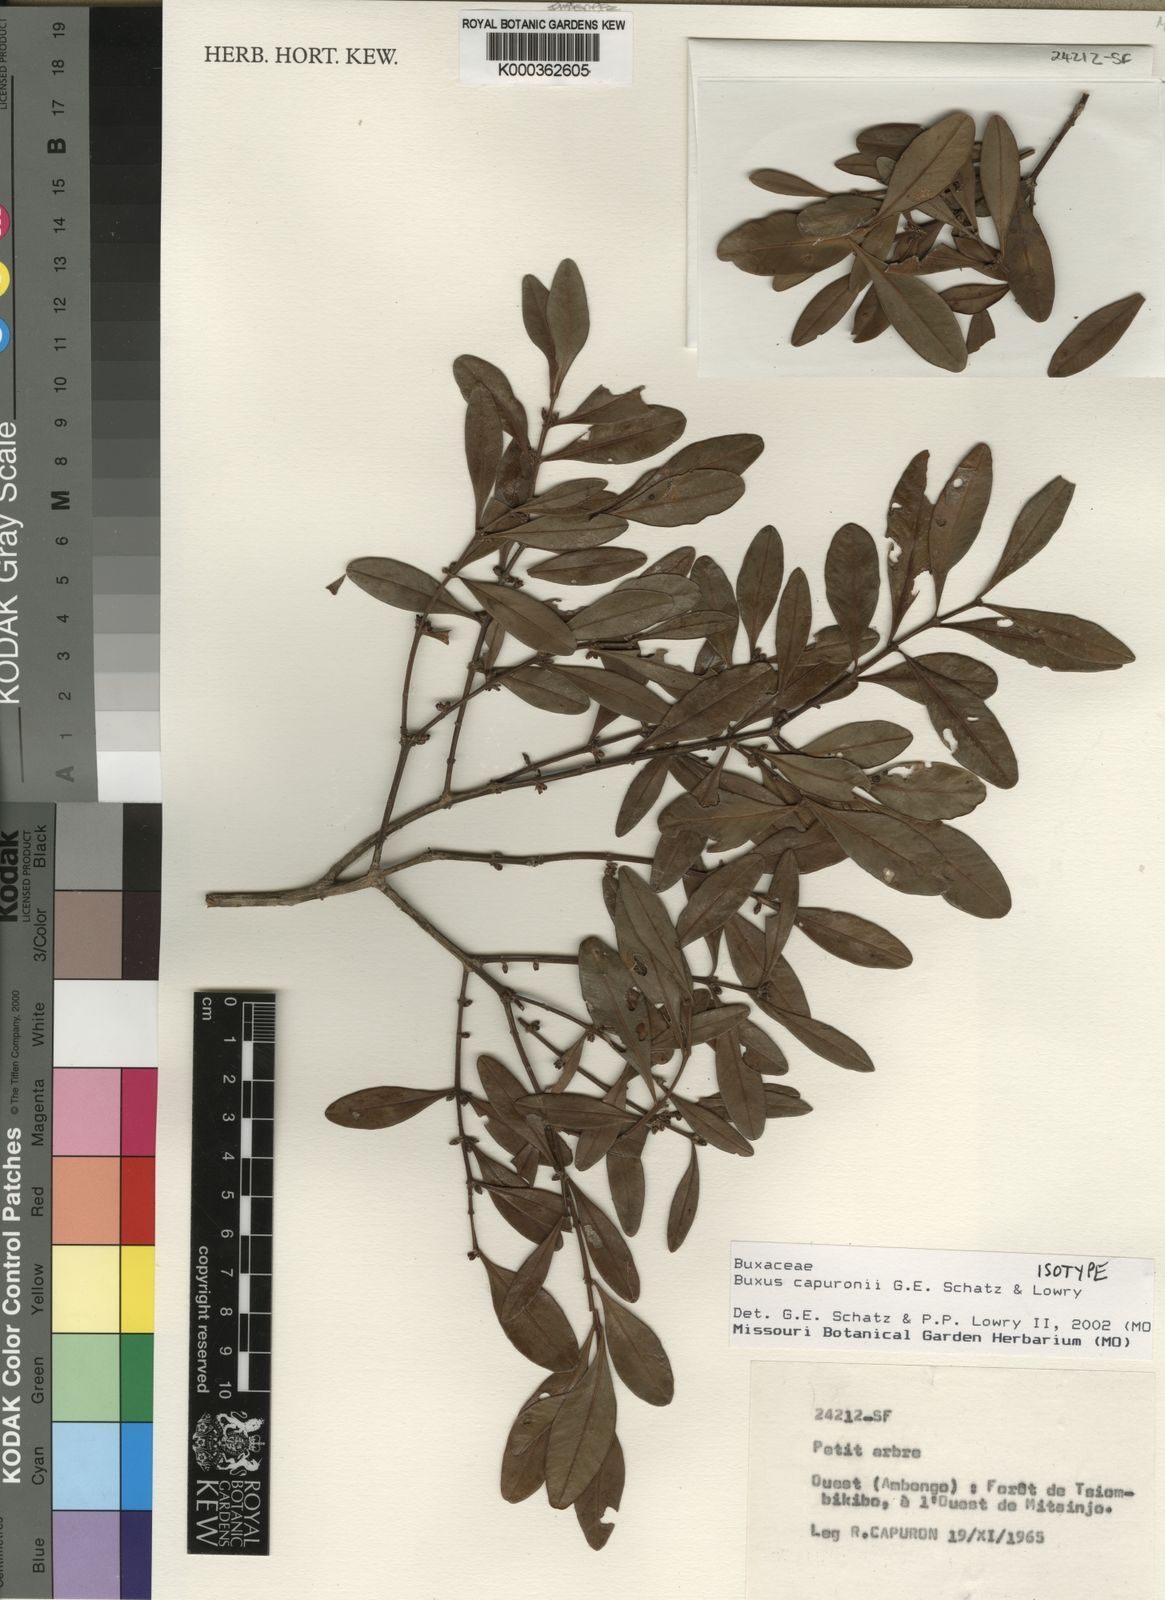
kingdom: Plantae
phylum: Tracheophyta
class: Magnoliopsida
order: Buxales
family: Buxaceae
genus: Buxus
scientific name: Buxus capuronii
